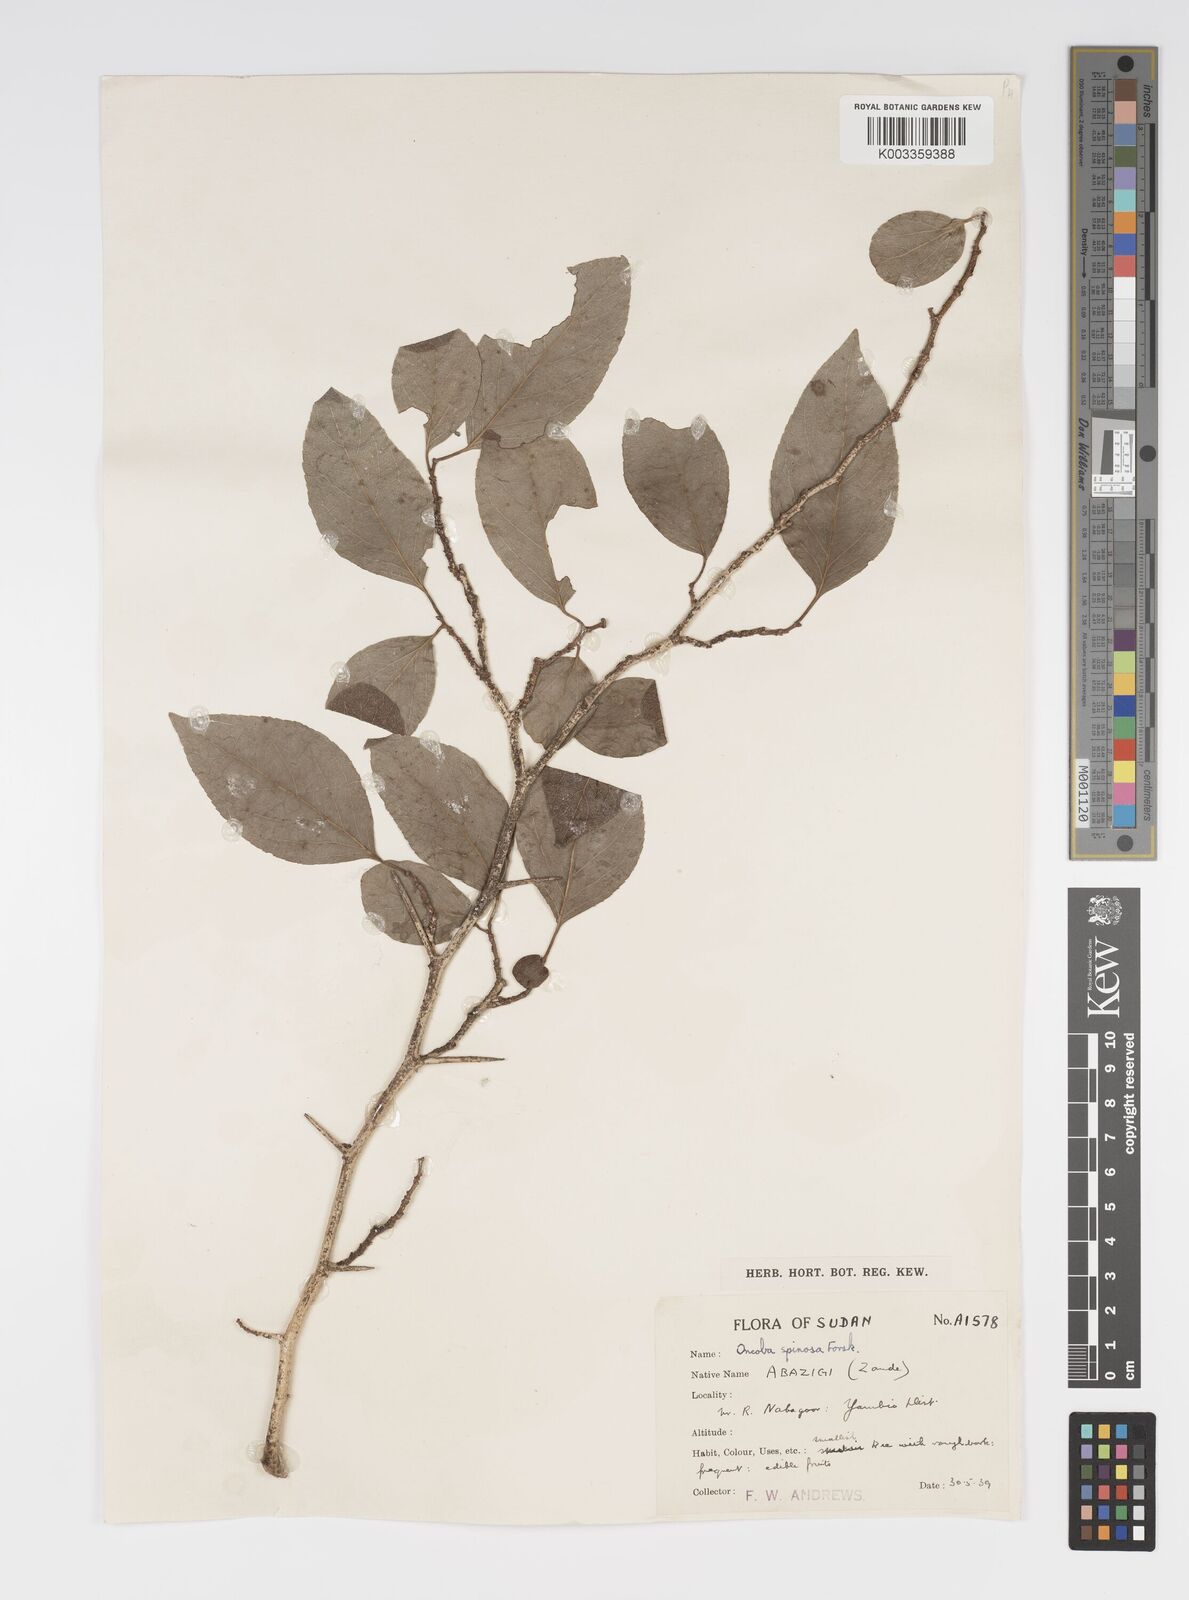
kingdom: Plantae
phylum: Tracheophyta
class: Magnoliopsida
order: Malpighiales
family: Salicaceae
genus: Oncoba
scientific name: Oncoba spinosa
